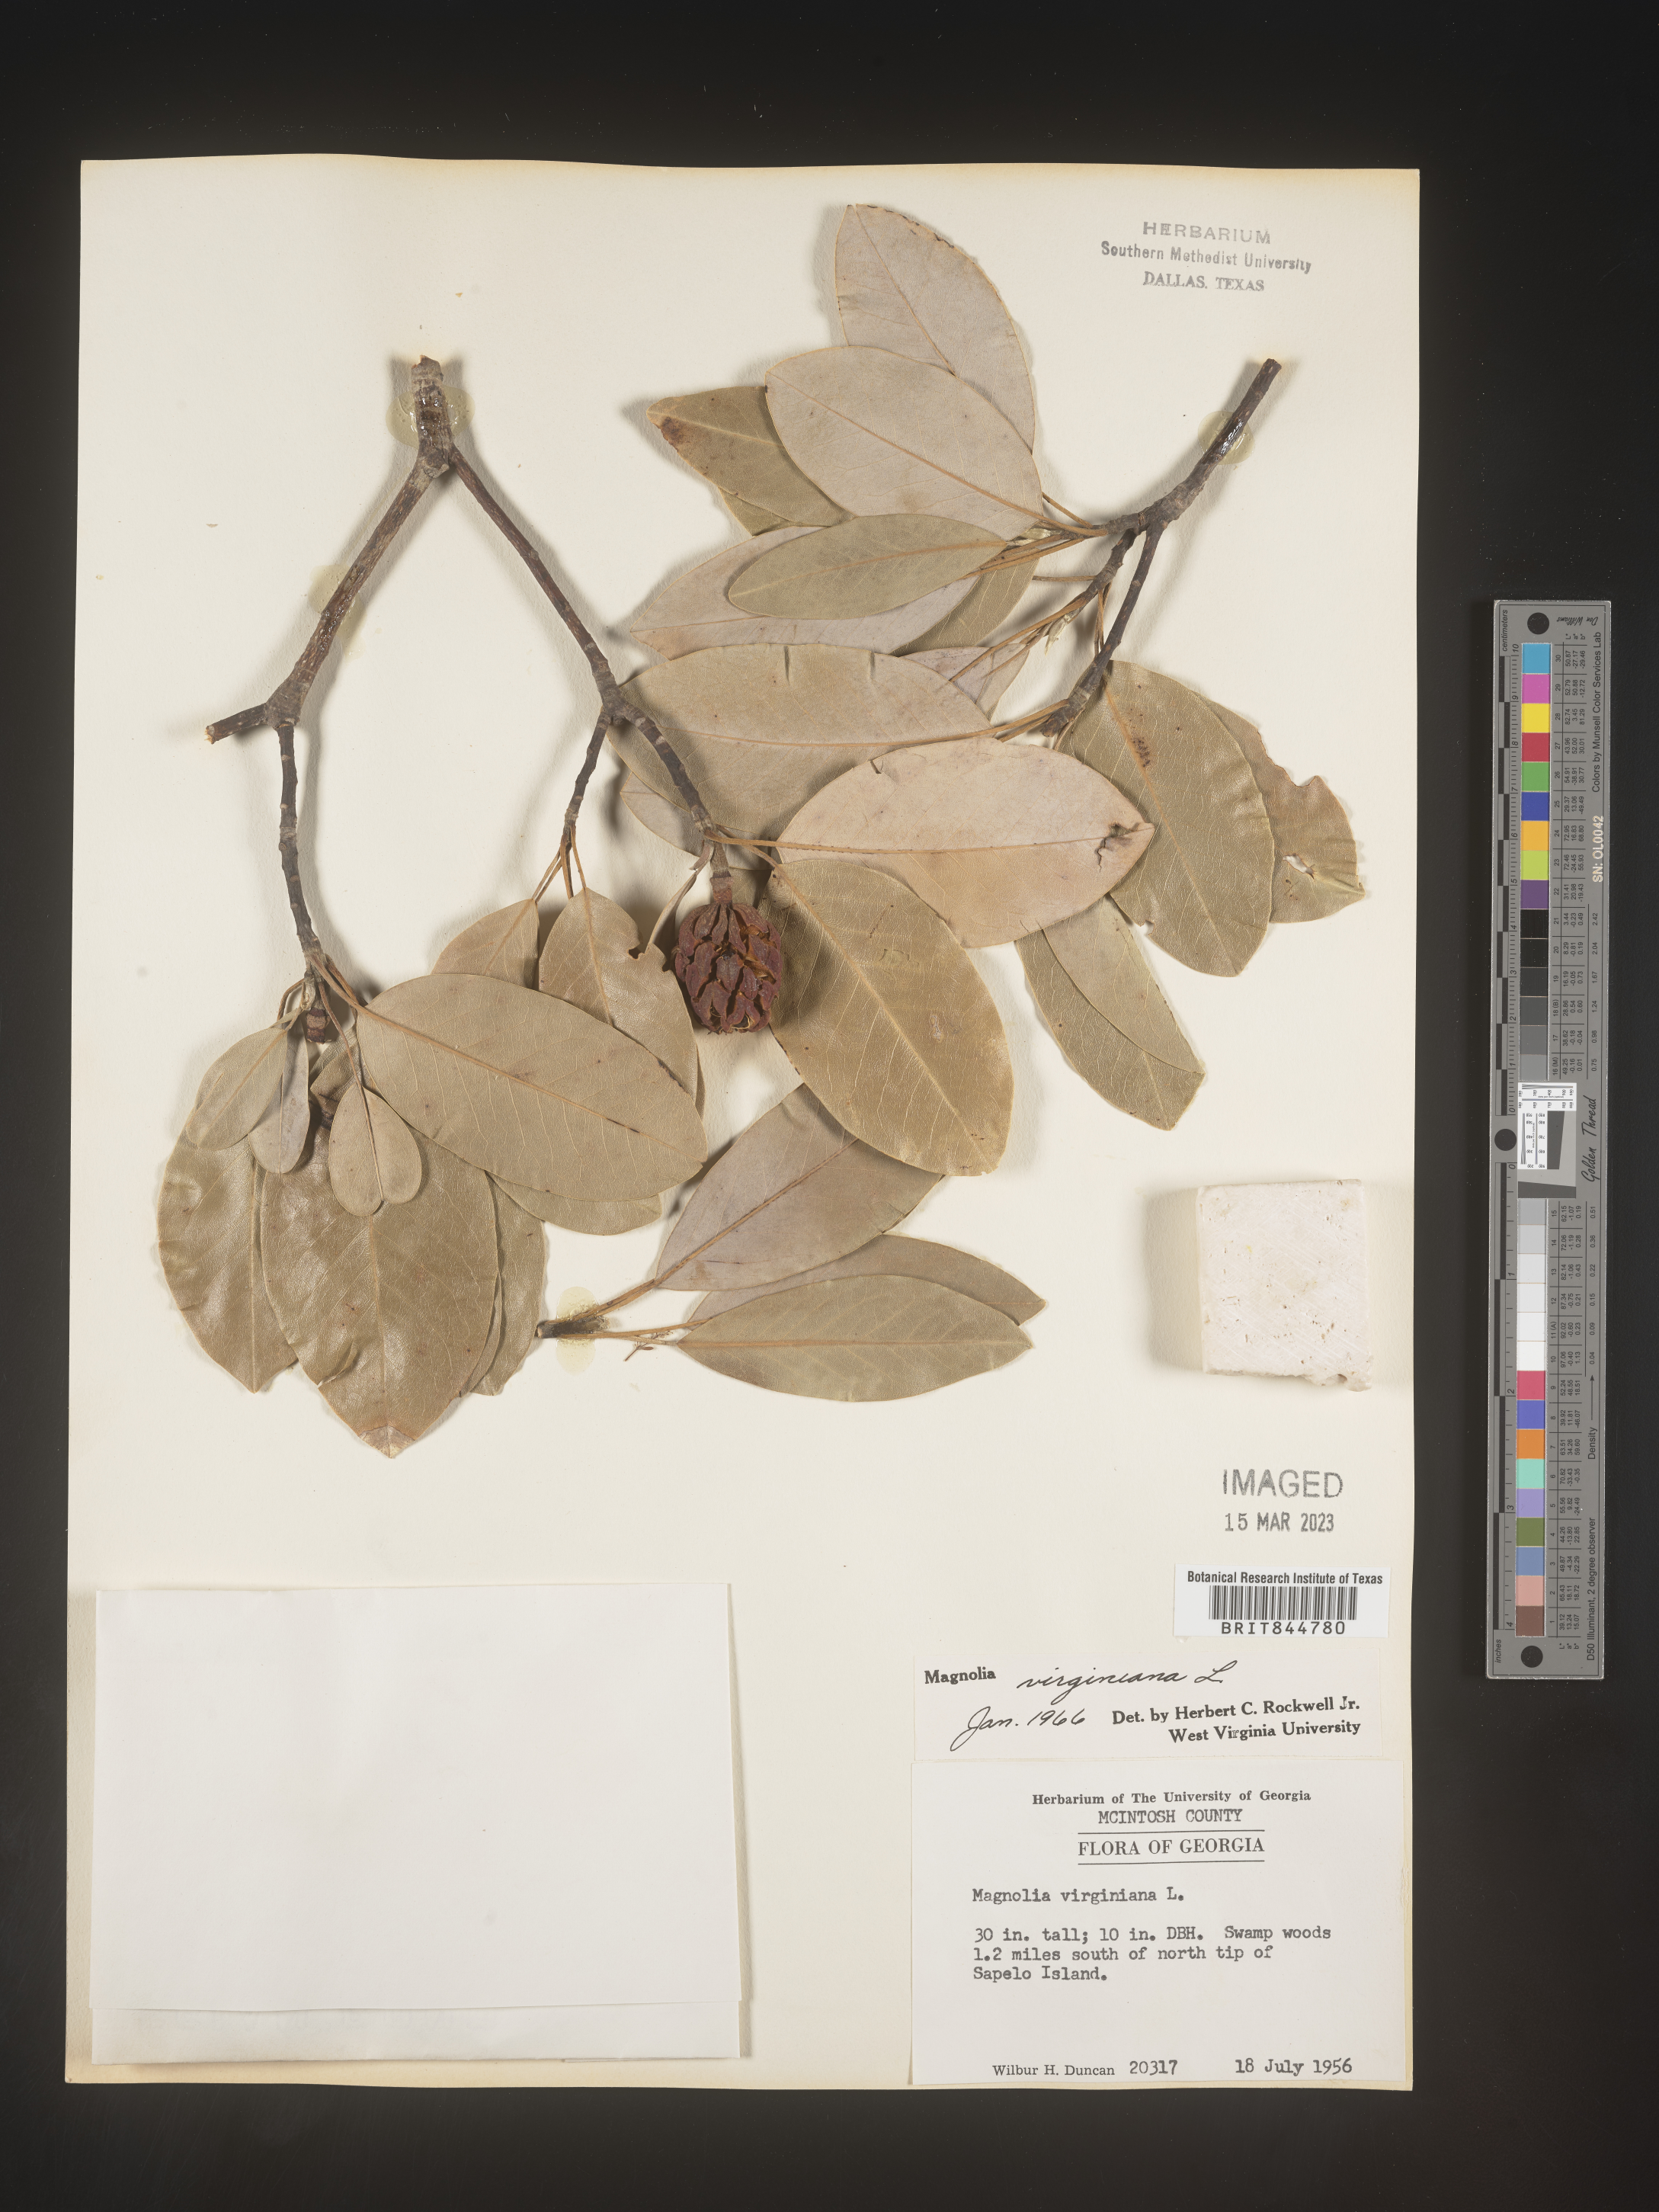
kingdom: Plantae
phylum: Tracheophyta
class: Magnoliopsida
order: Magnoliales
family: Magnoliaceae
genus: Magnolia
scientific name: Magnolia virginiana
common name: Swamp bay
